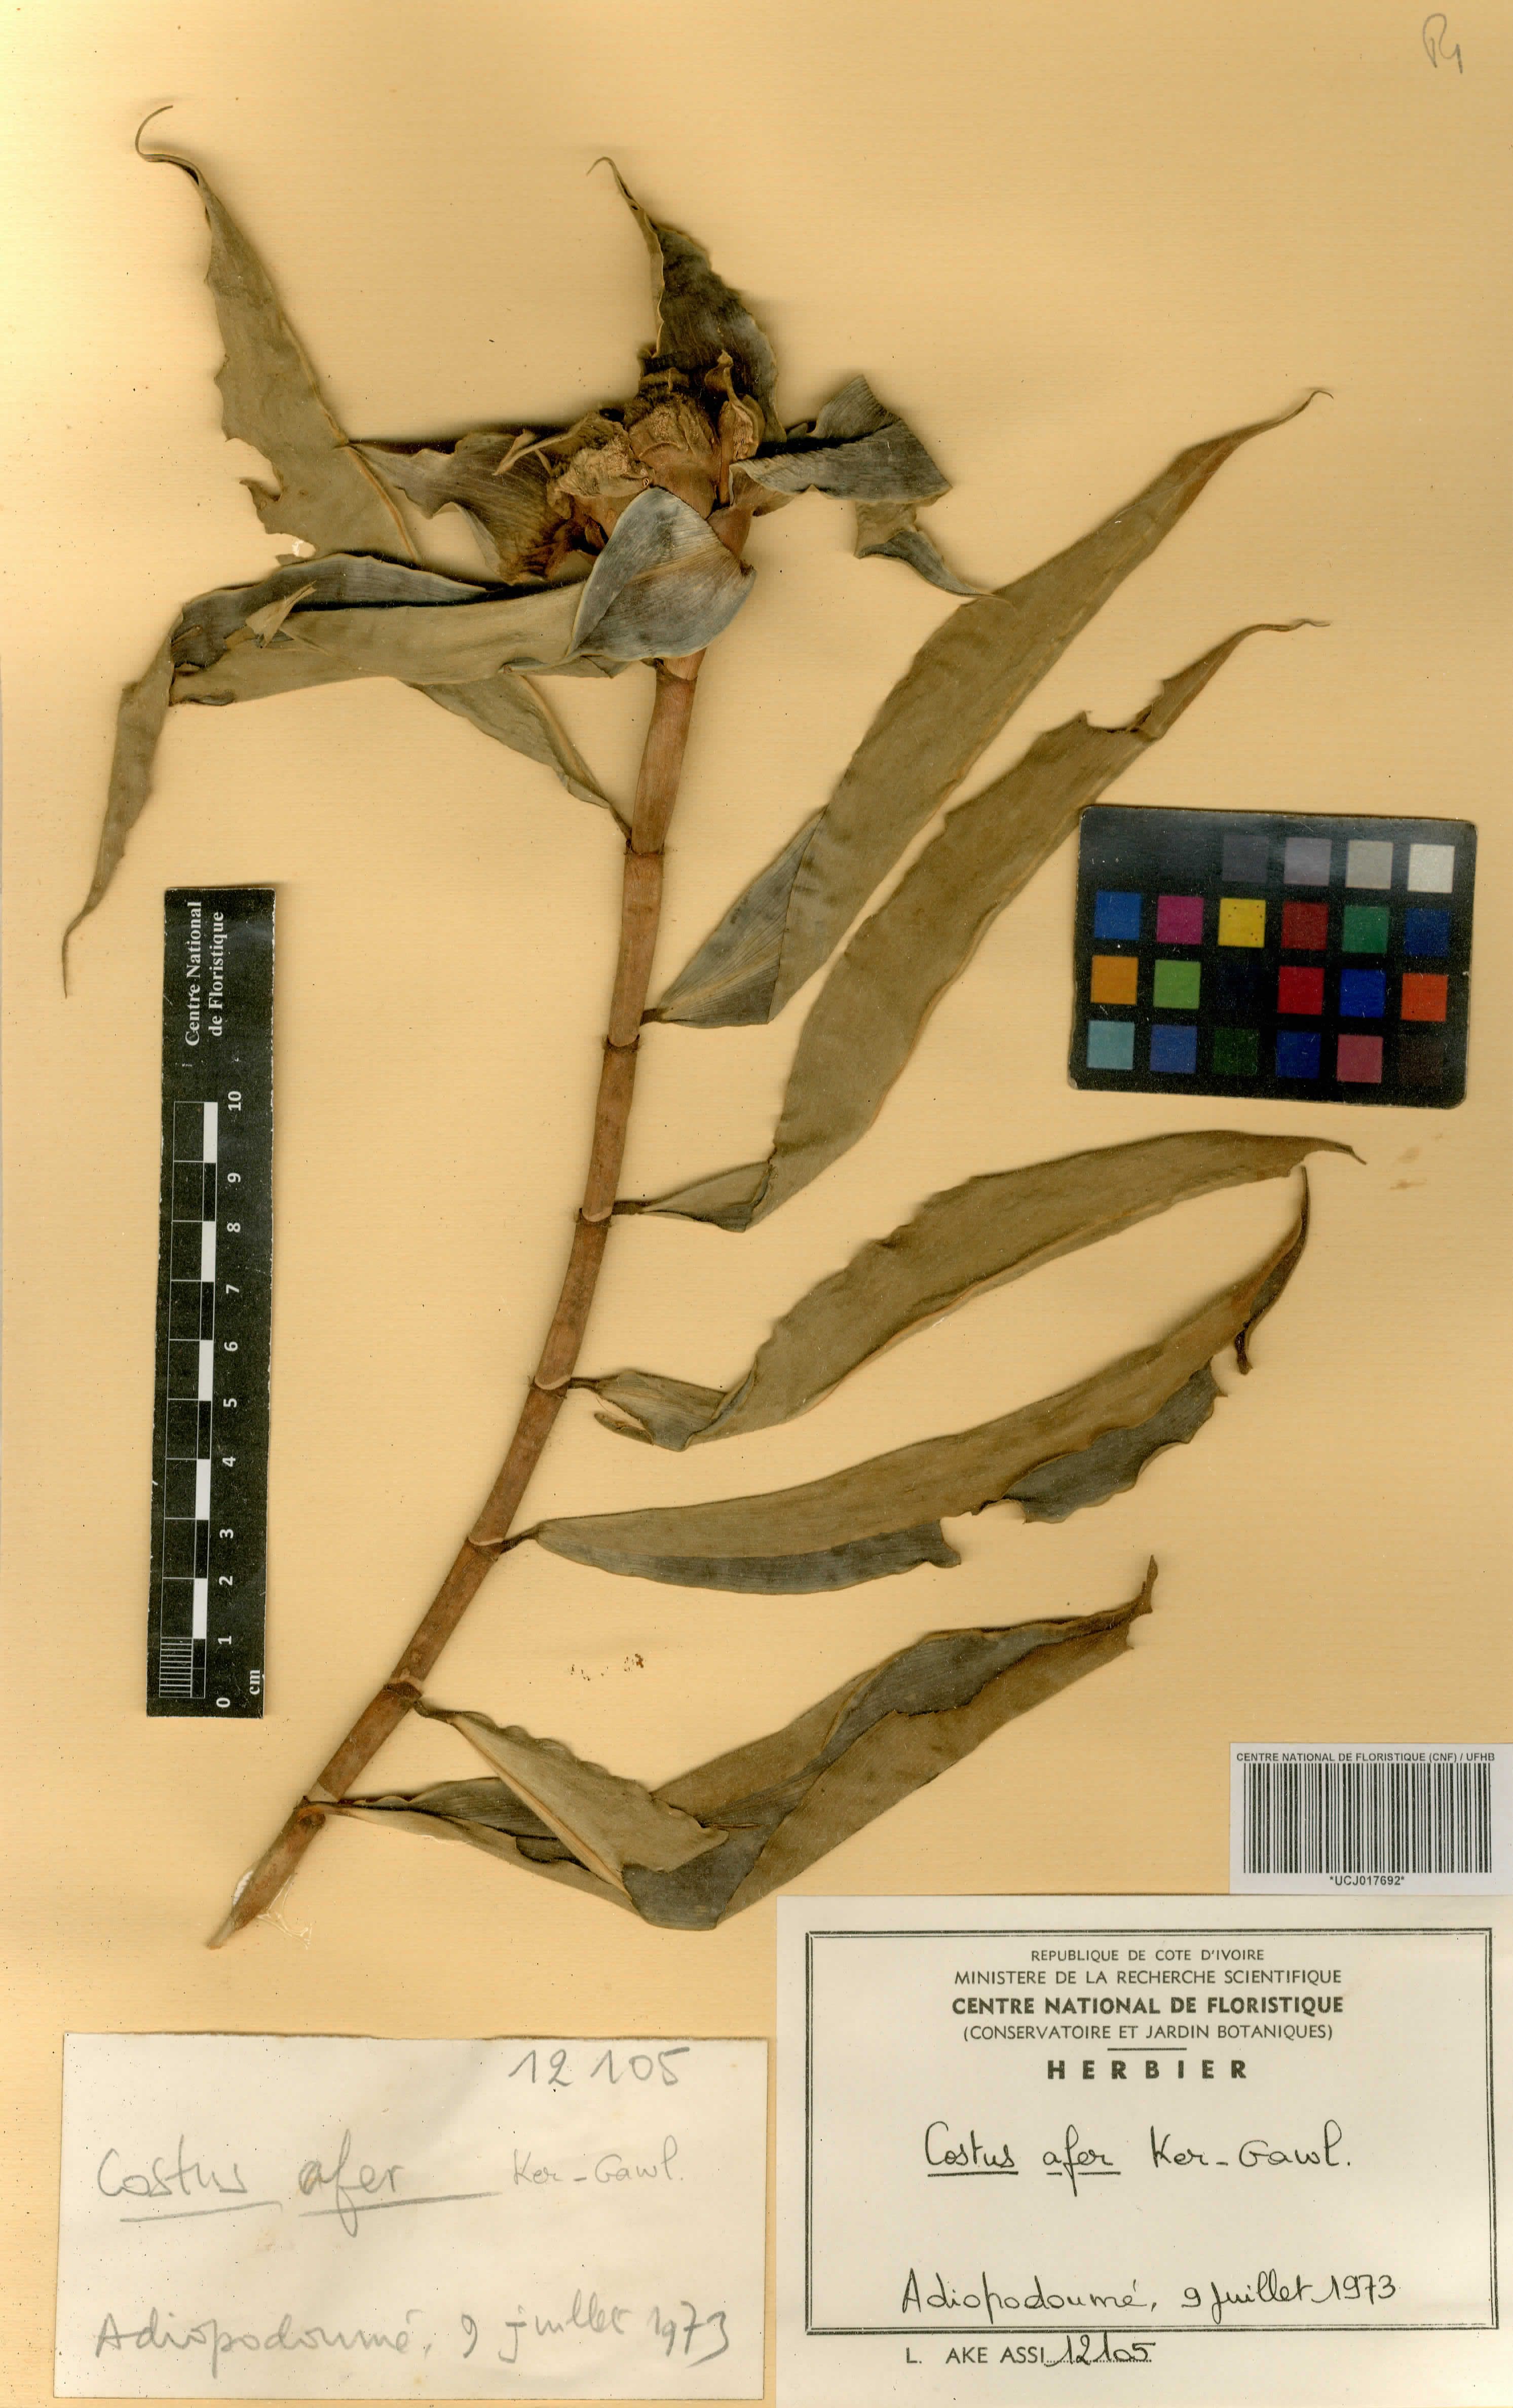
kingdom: Plantae
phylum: Tracheophyta
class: Liliopsida
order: Zingiberales
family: Costaceae
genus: Costus
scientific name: Costus afer
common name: Spiral-ginger
